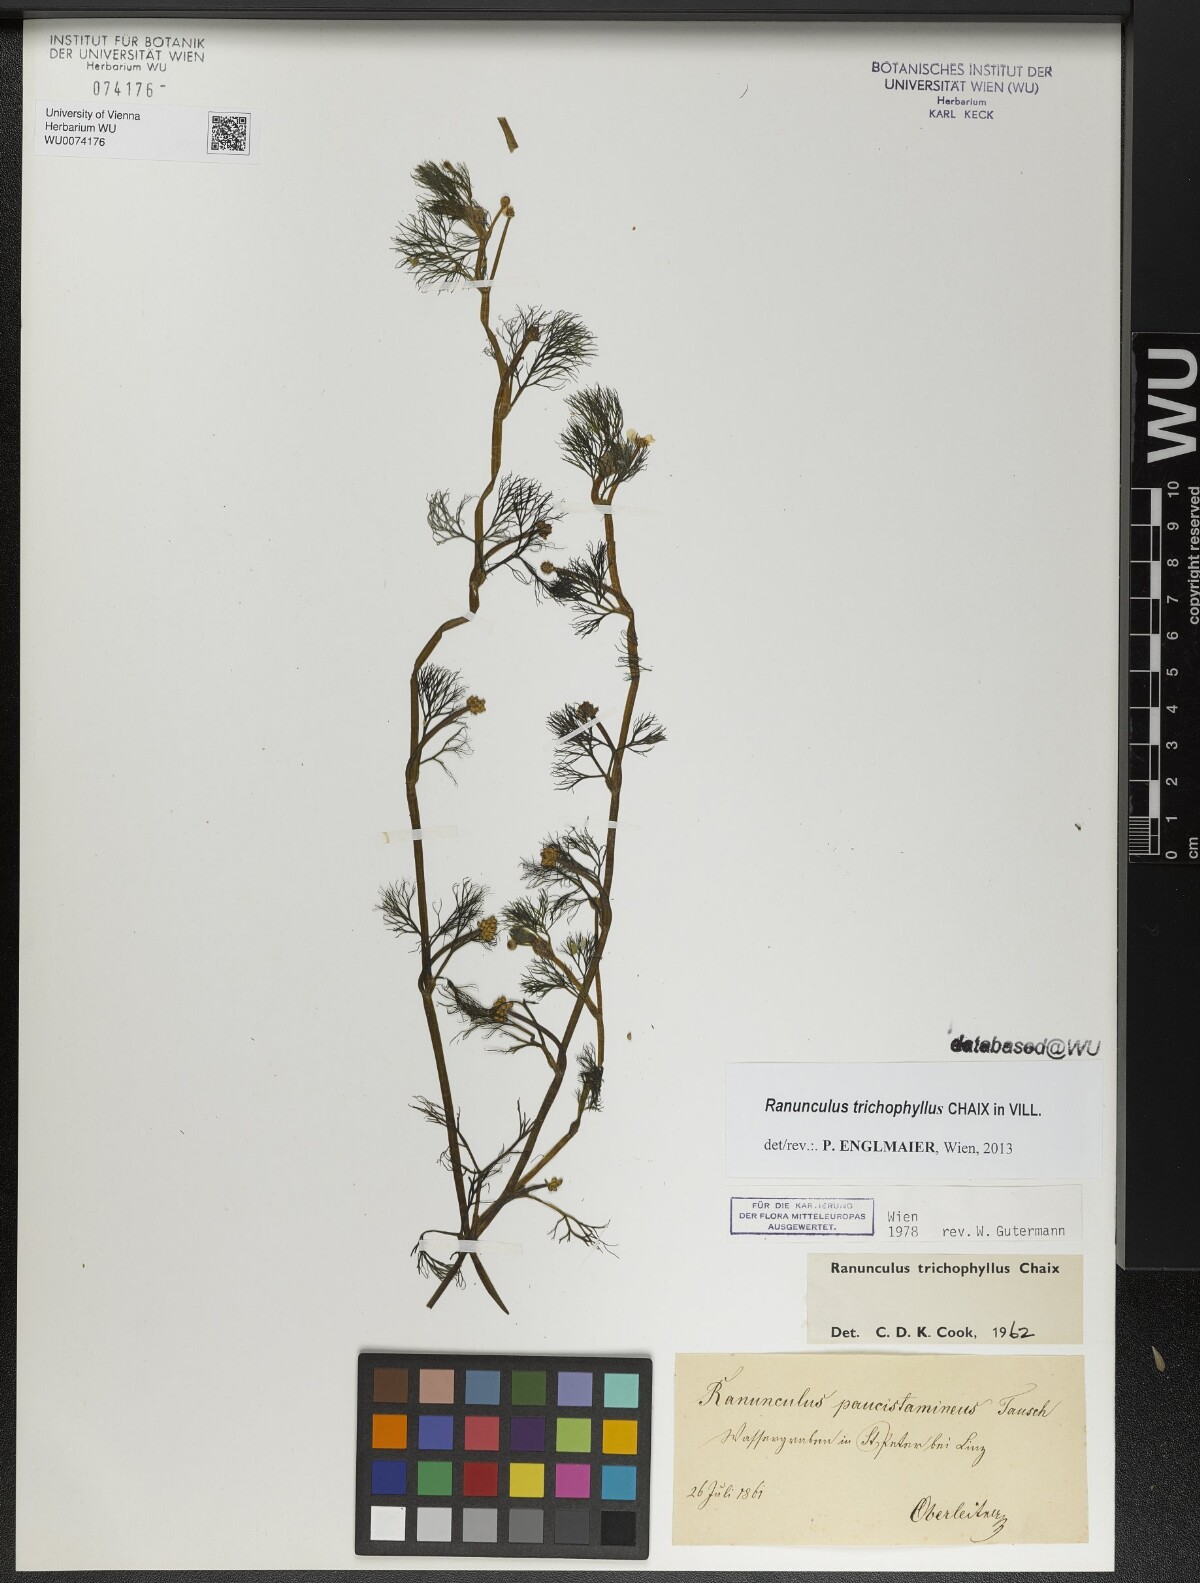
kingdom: Plantae
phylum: Tracheophyta
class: Magnoliopsida
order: Ranunculales
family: Ranunculaceae
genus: Ranunculus
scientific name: Ranunculus trichophyllus
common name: Thread-leaved water-crowfoot
